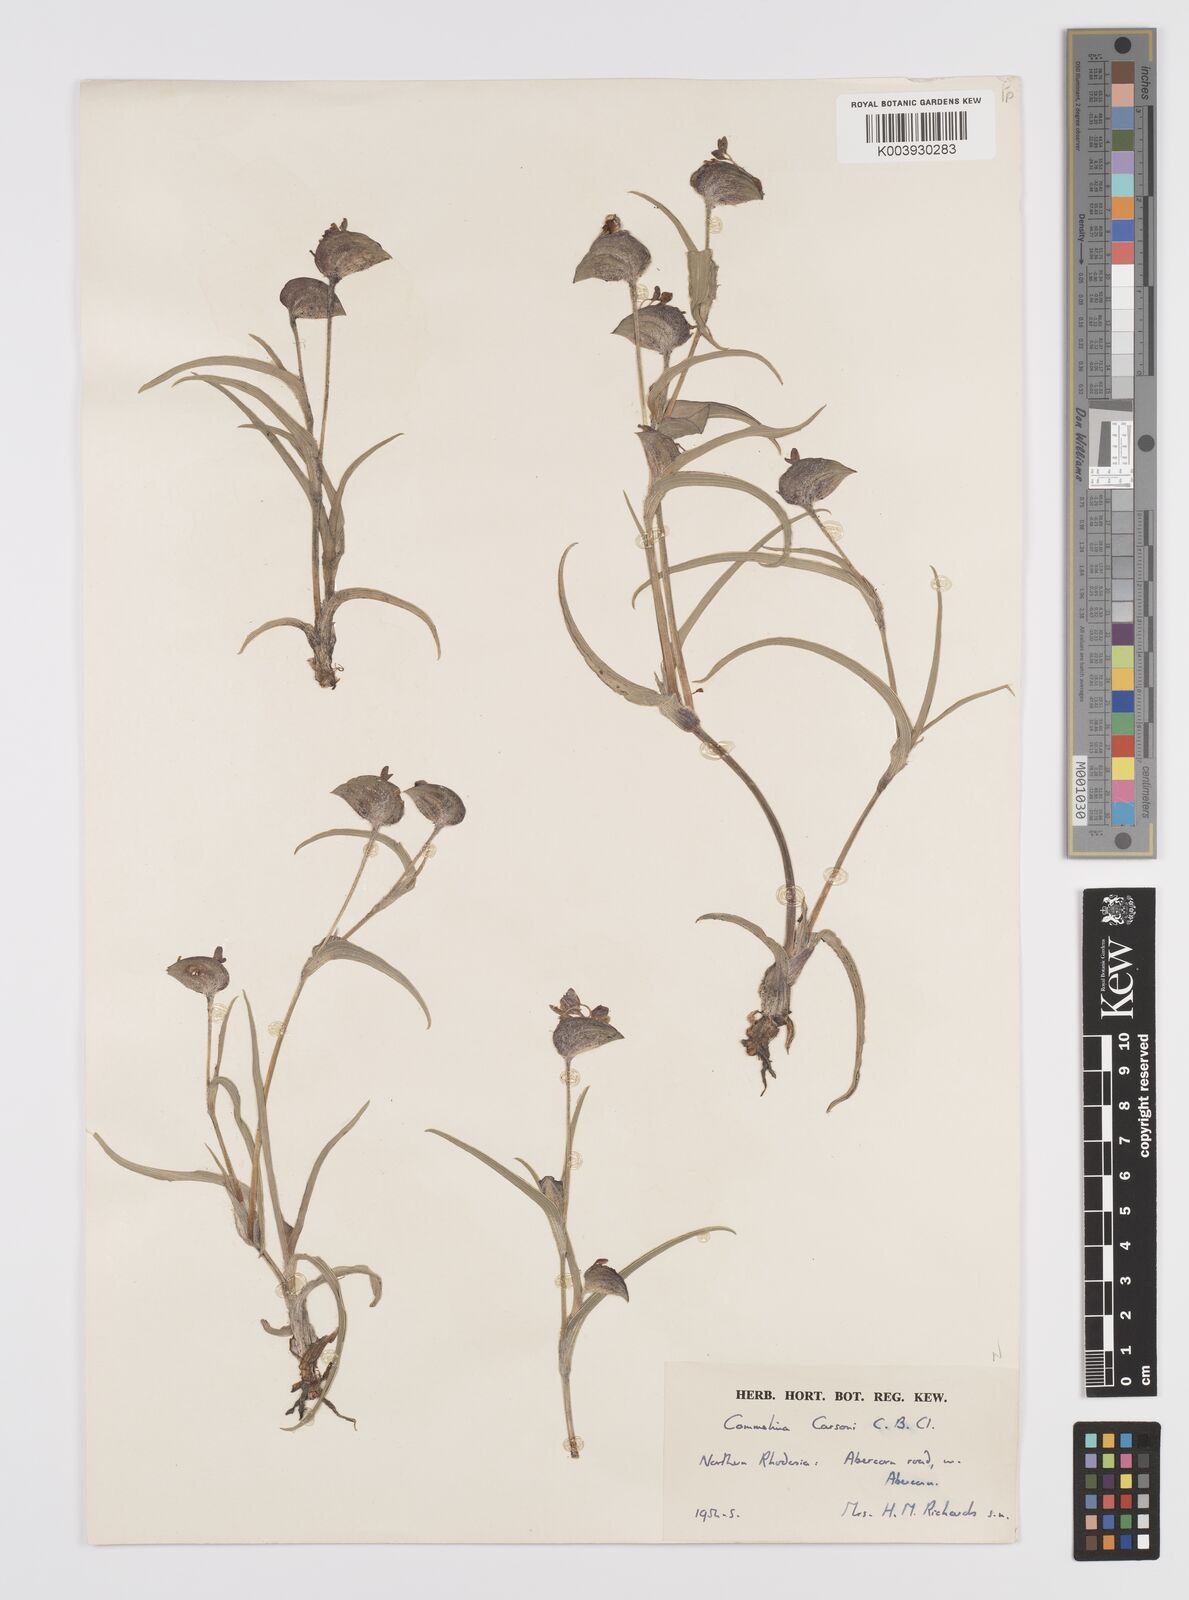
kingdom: Plantae
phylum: Tracheophyta
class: Liliopsida
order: Commelinales
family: Commelinaceae
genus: Commelina
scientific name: Commelina schweinfurthii
